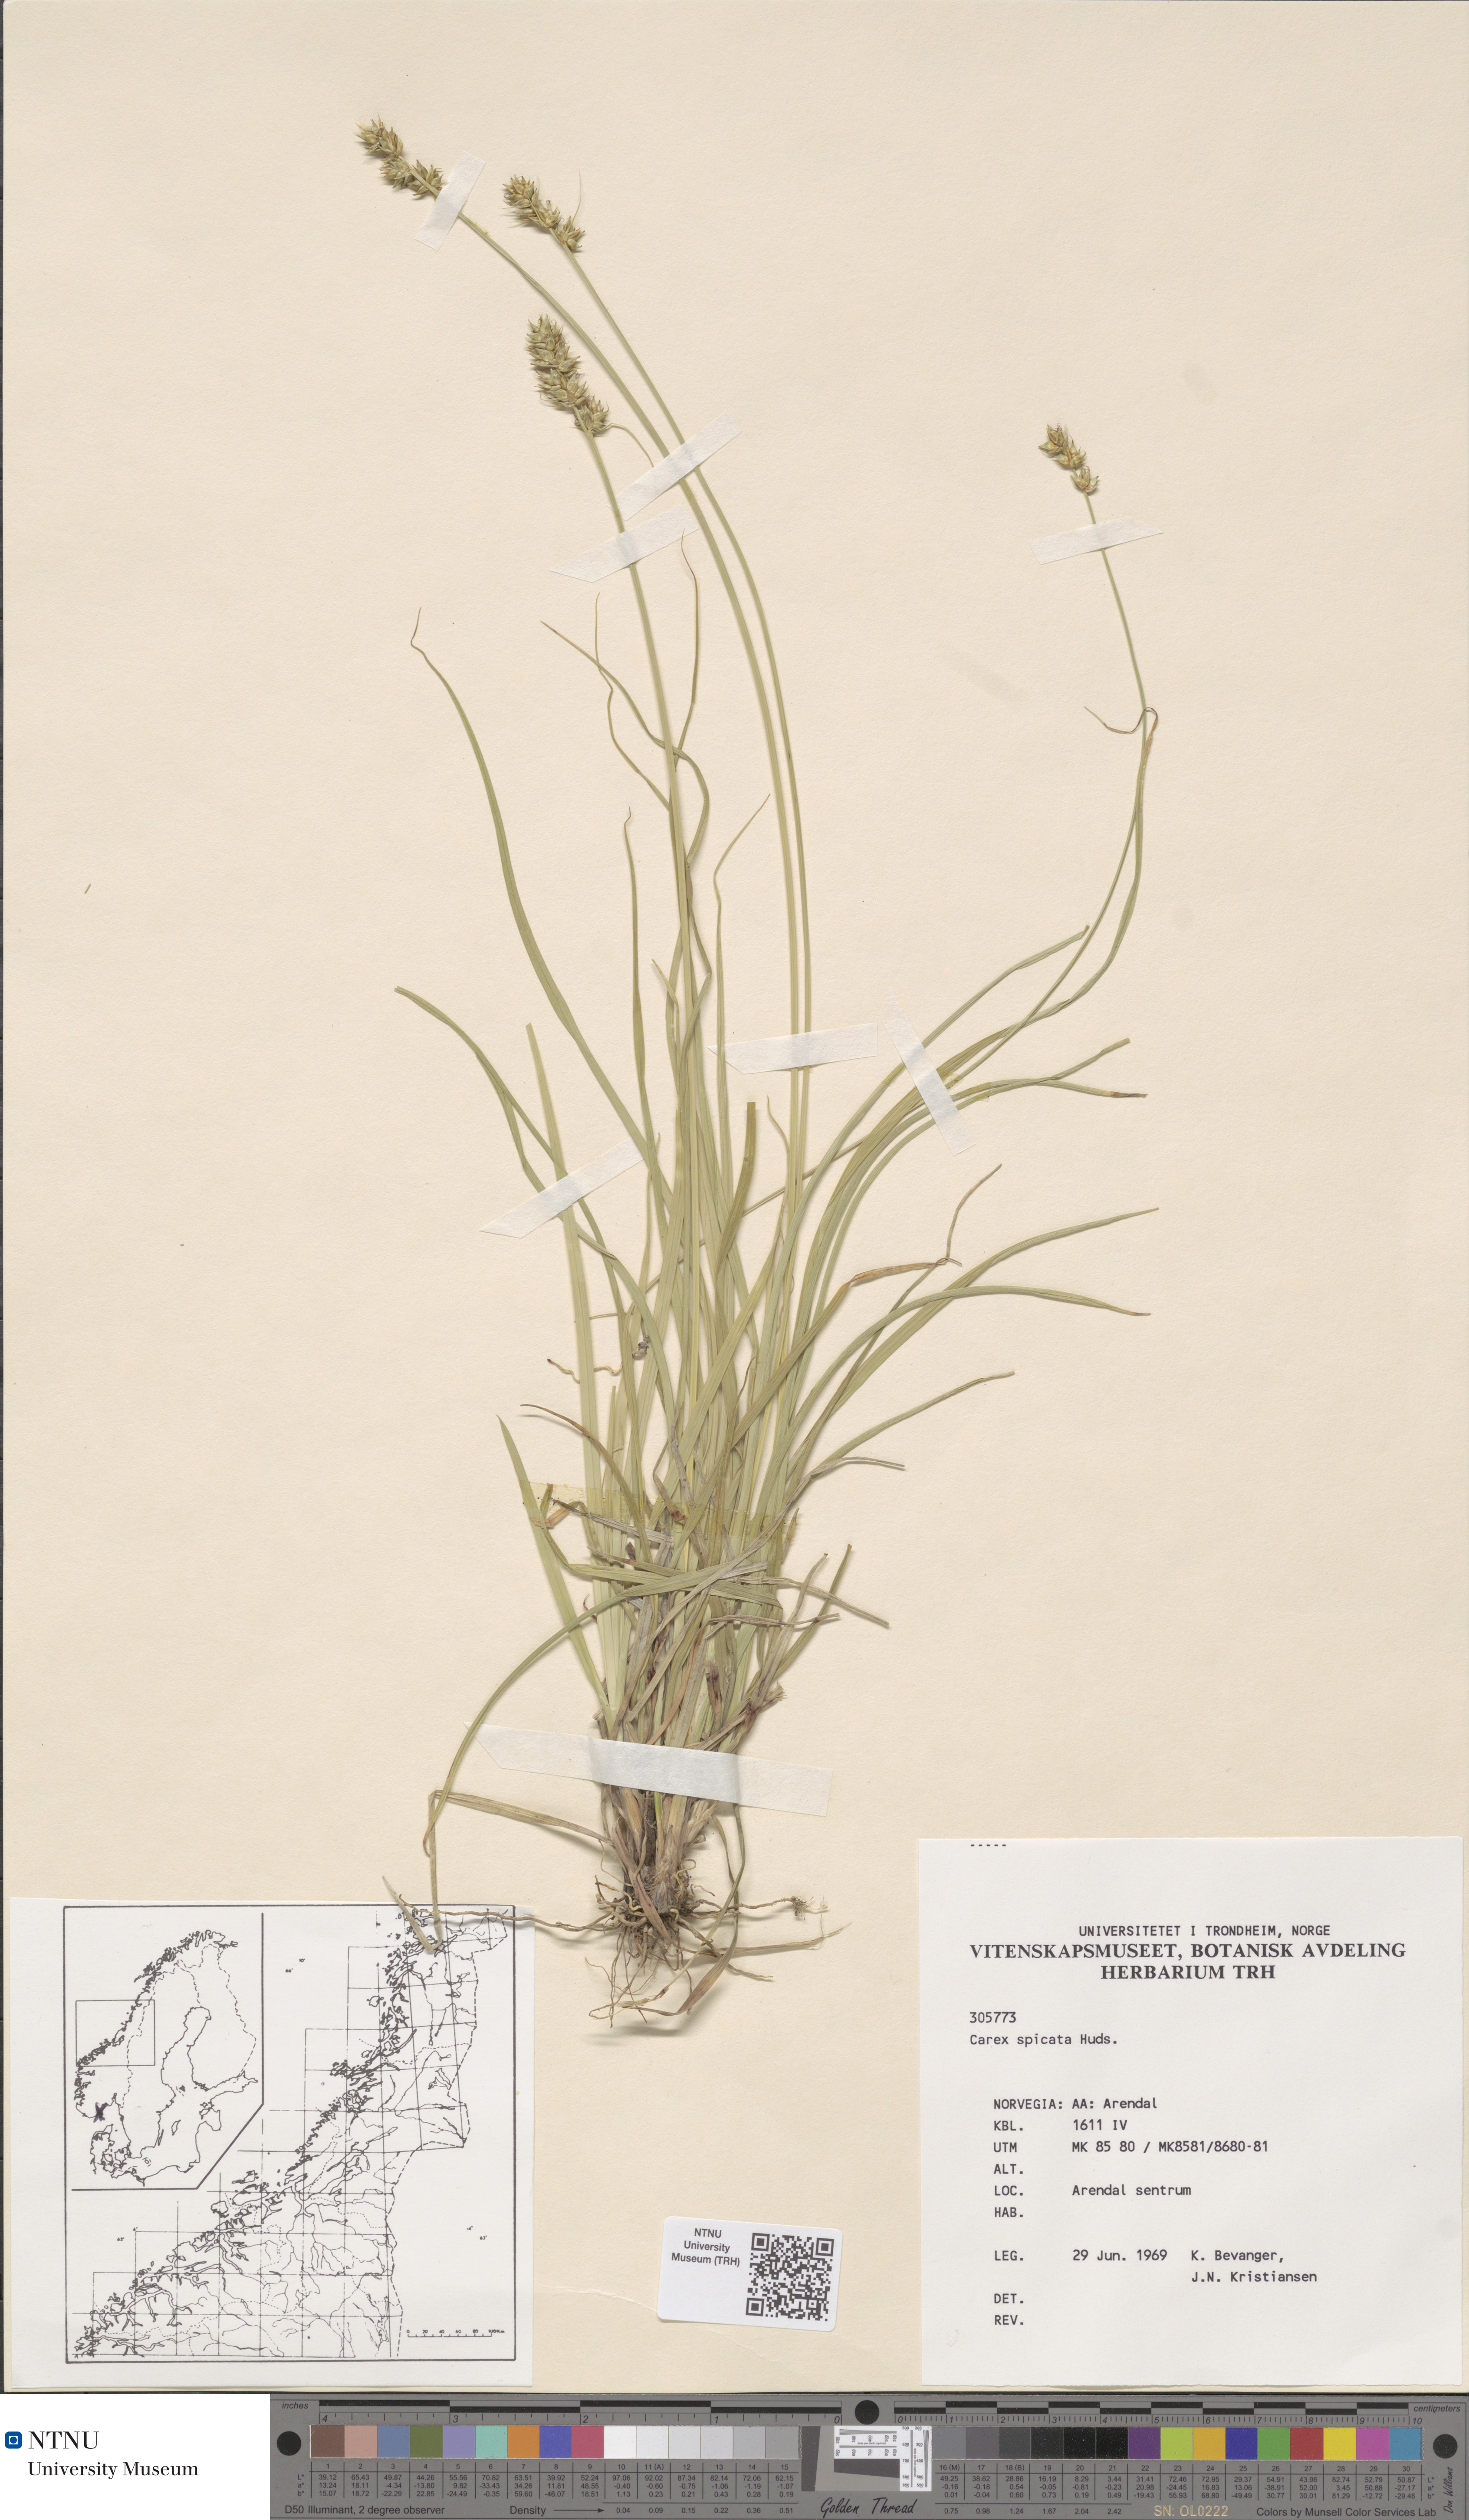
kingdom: Plantae
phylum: Tracheophyta
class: Liliopsida
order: Poales
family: Cyperaceae
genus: Carex
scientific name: Carex spicata
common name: Spiked sedge
